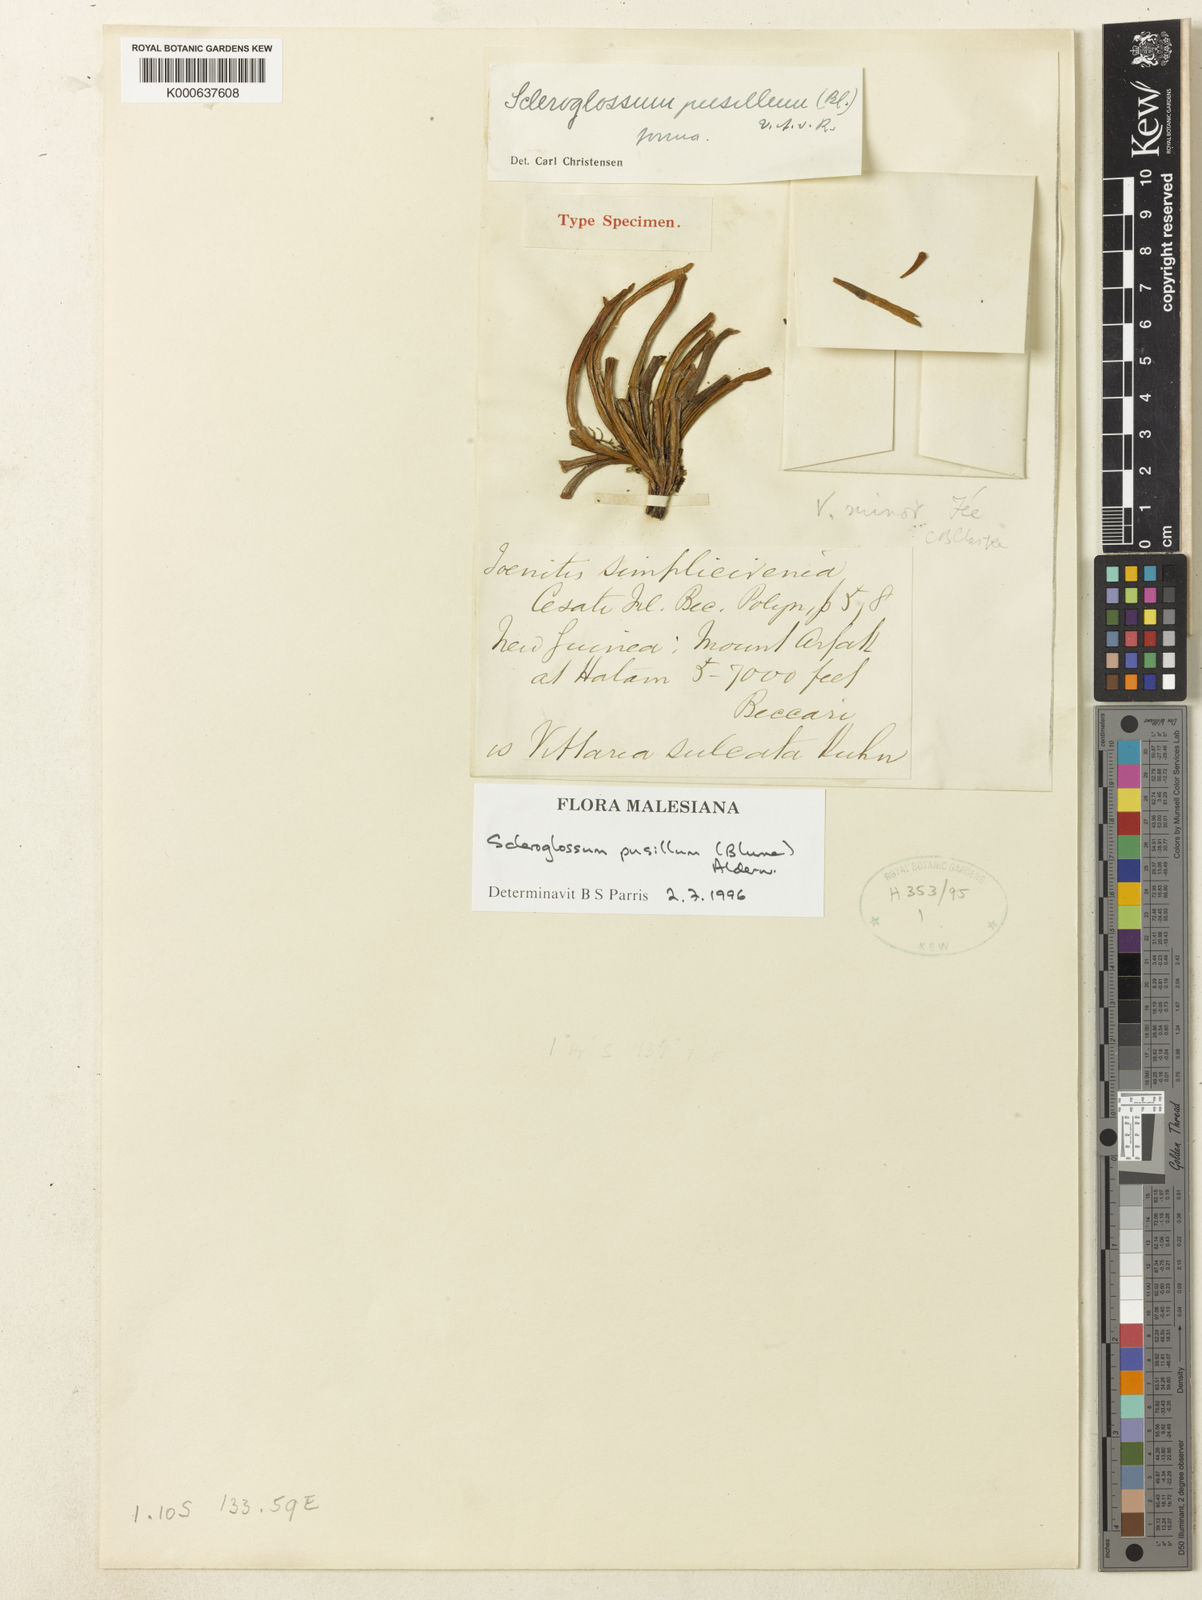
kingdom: Plantae
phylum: Tracheophyta
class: Polypodiopsida
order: Polypodiales
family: Polypodiaceae
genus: Scleroglossum
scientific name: Scleroglossum pusillum
